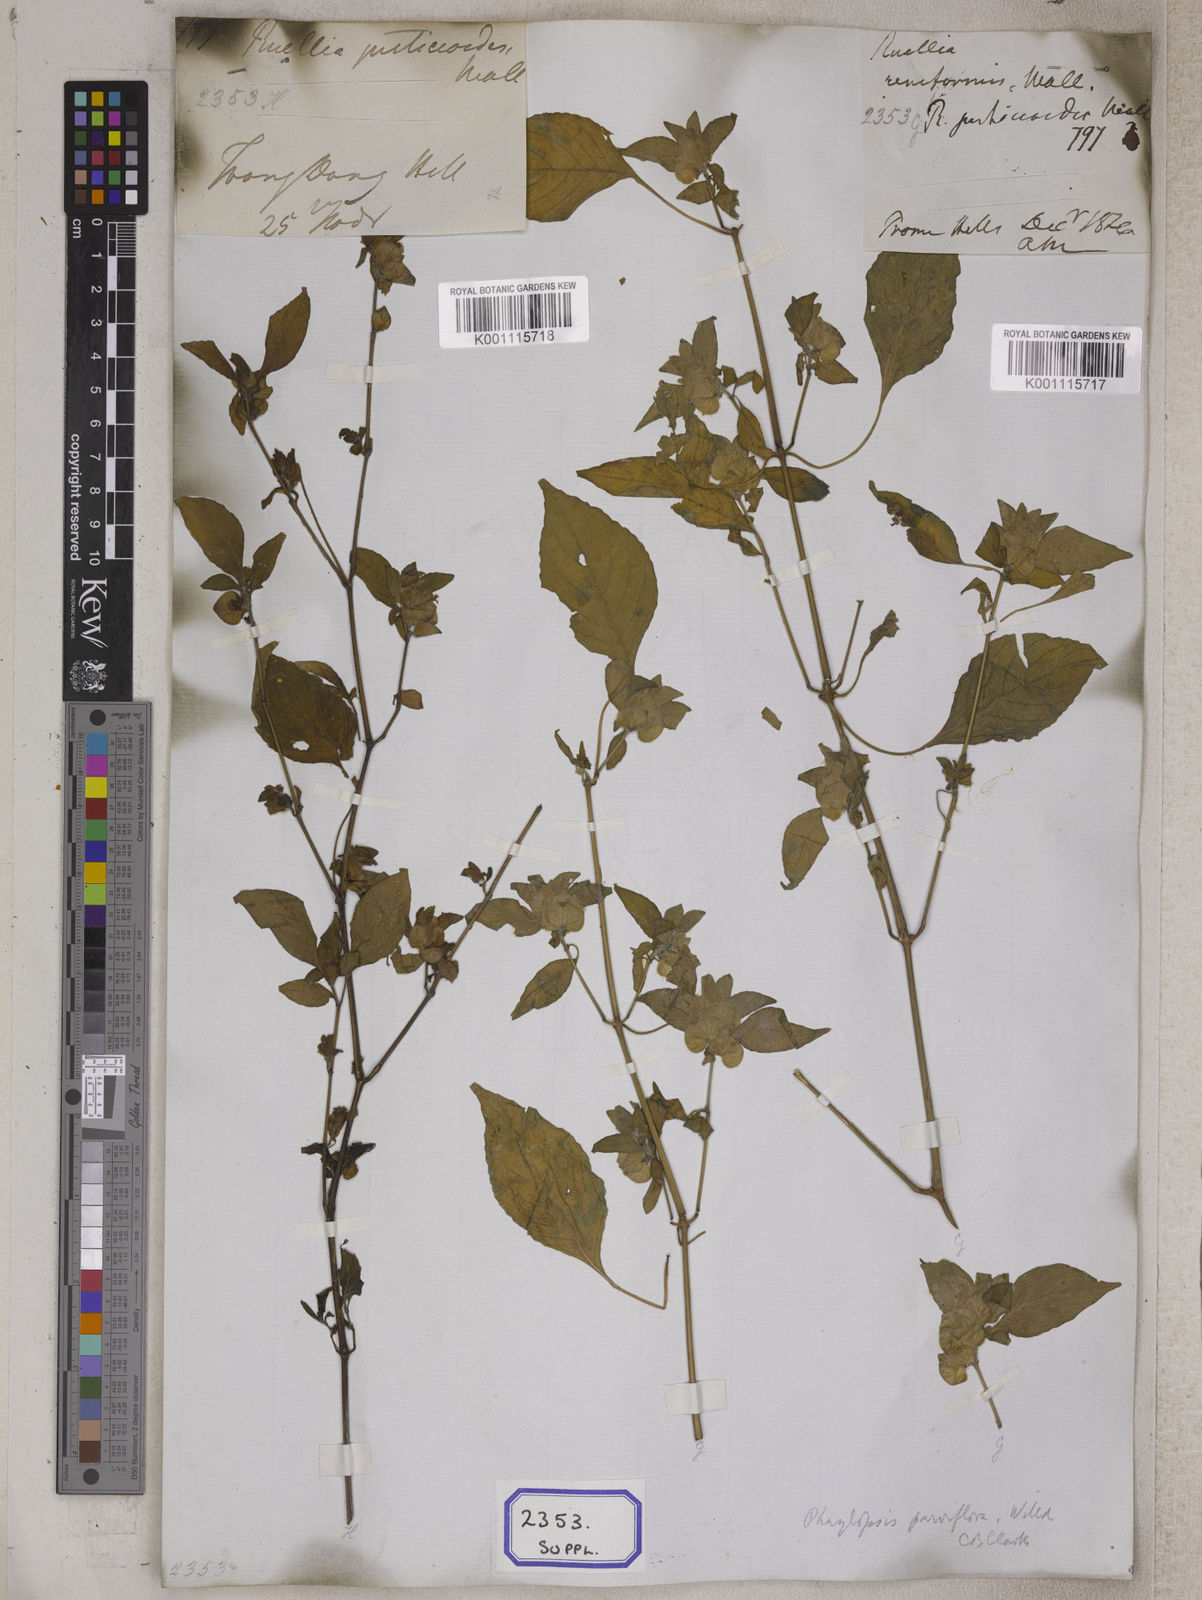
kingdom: Plantae
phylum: Tracheophyta
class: Magnoliopsida
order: Lamiales
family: Acanthaceae
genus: Phaulopsis
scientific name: Phaulopsis imbricata
